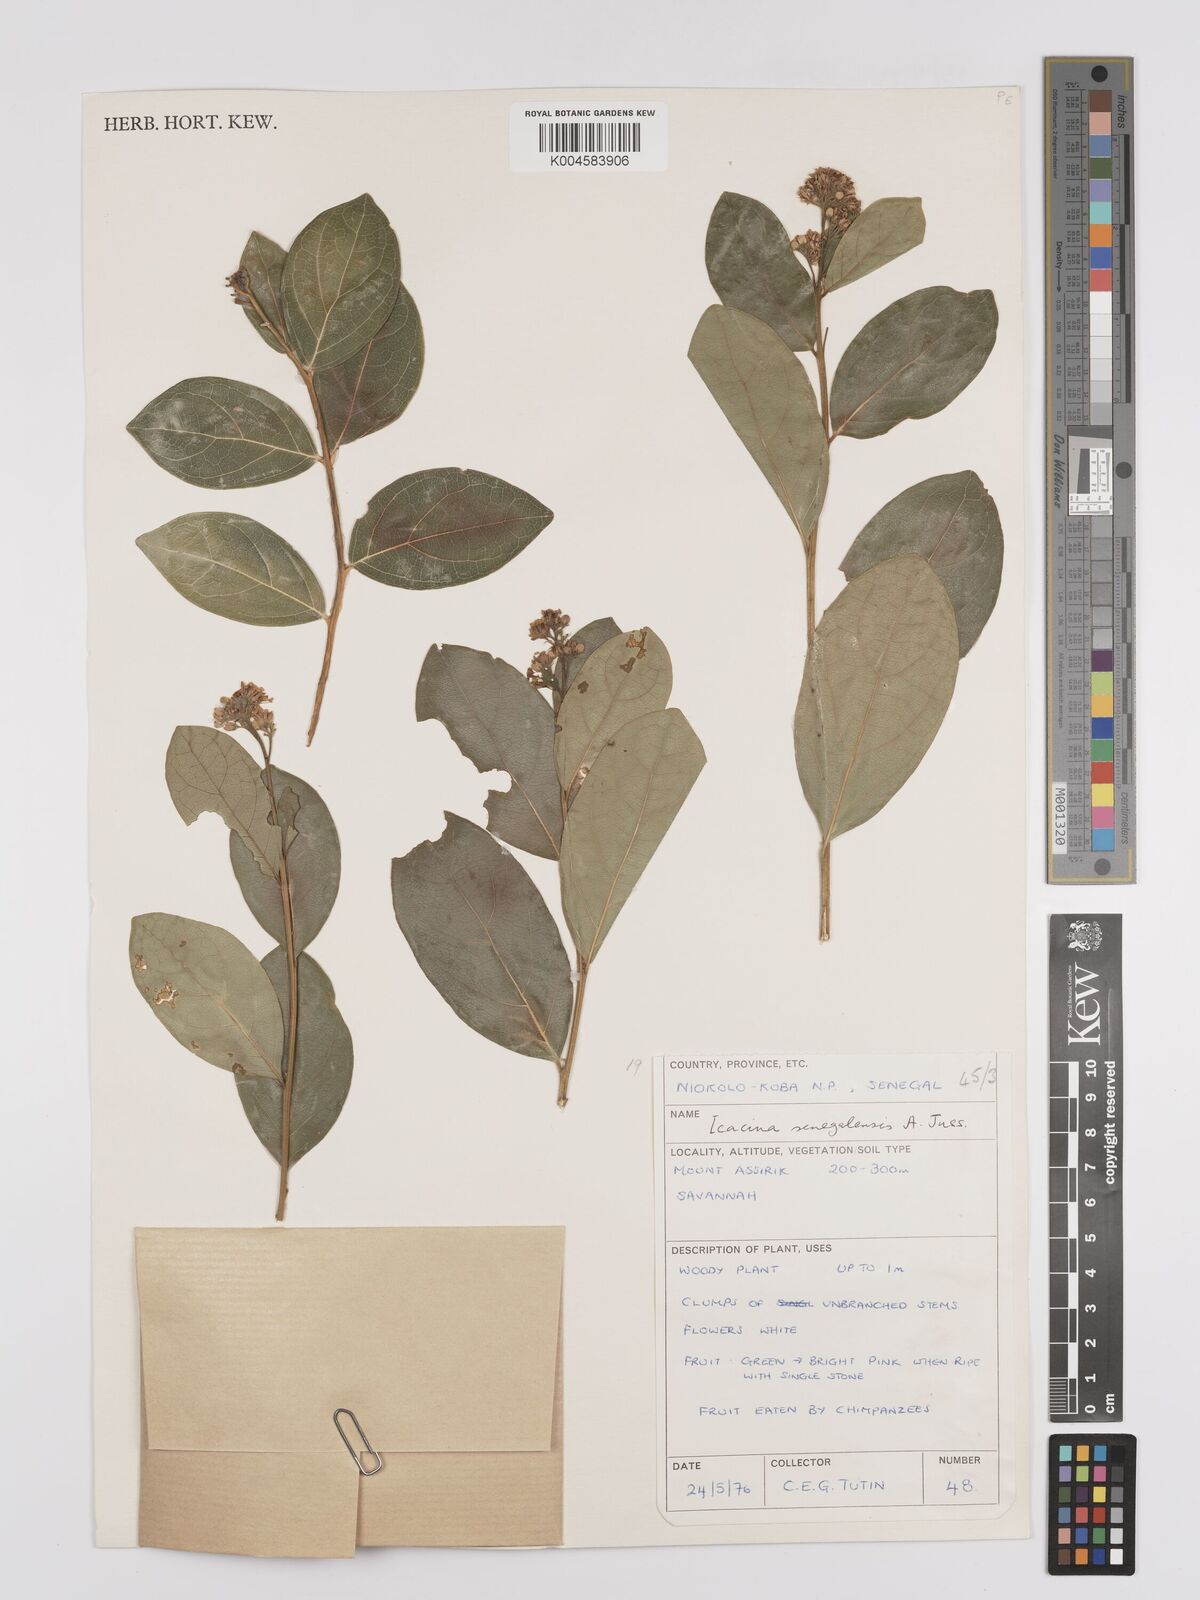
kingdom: Plantae
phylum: Tracheophyta
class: Magnoliopsida
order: Icacinales
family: Icacinaceae
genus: Icacina
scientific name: Icacina oliviformis
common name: False yam
